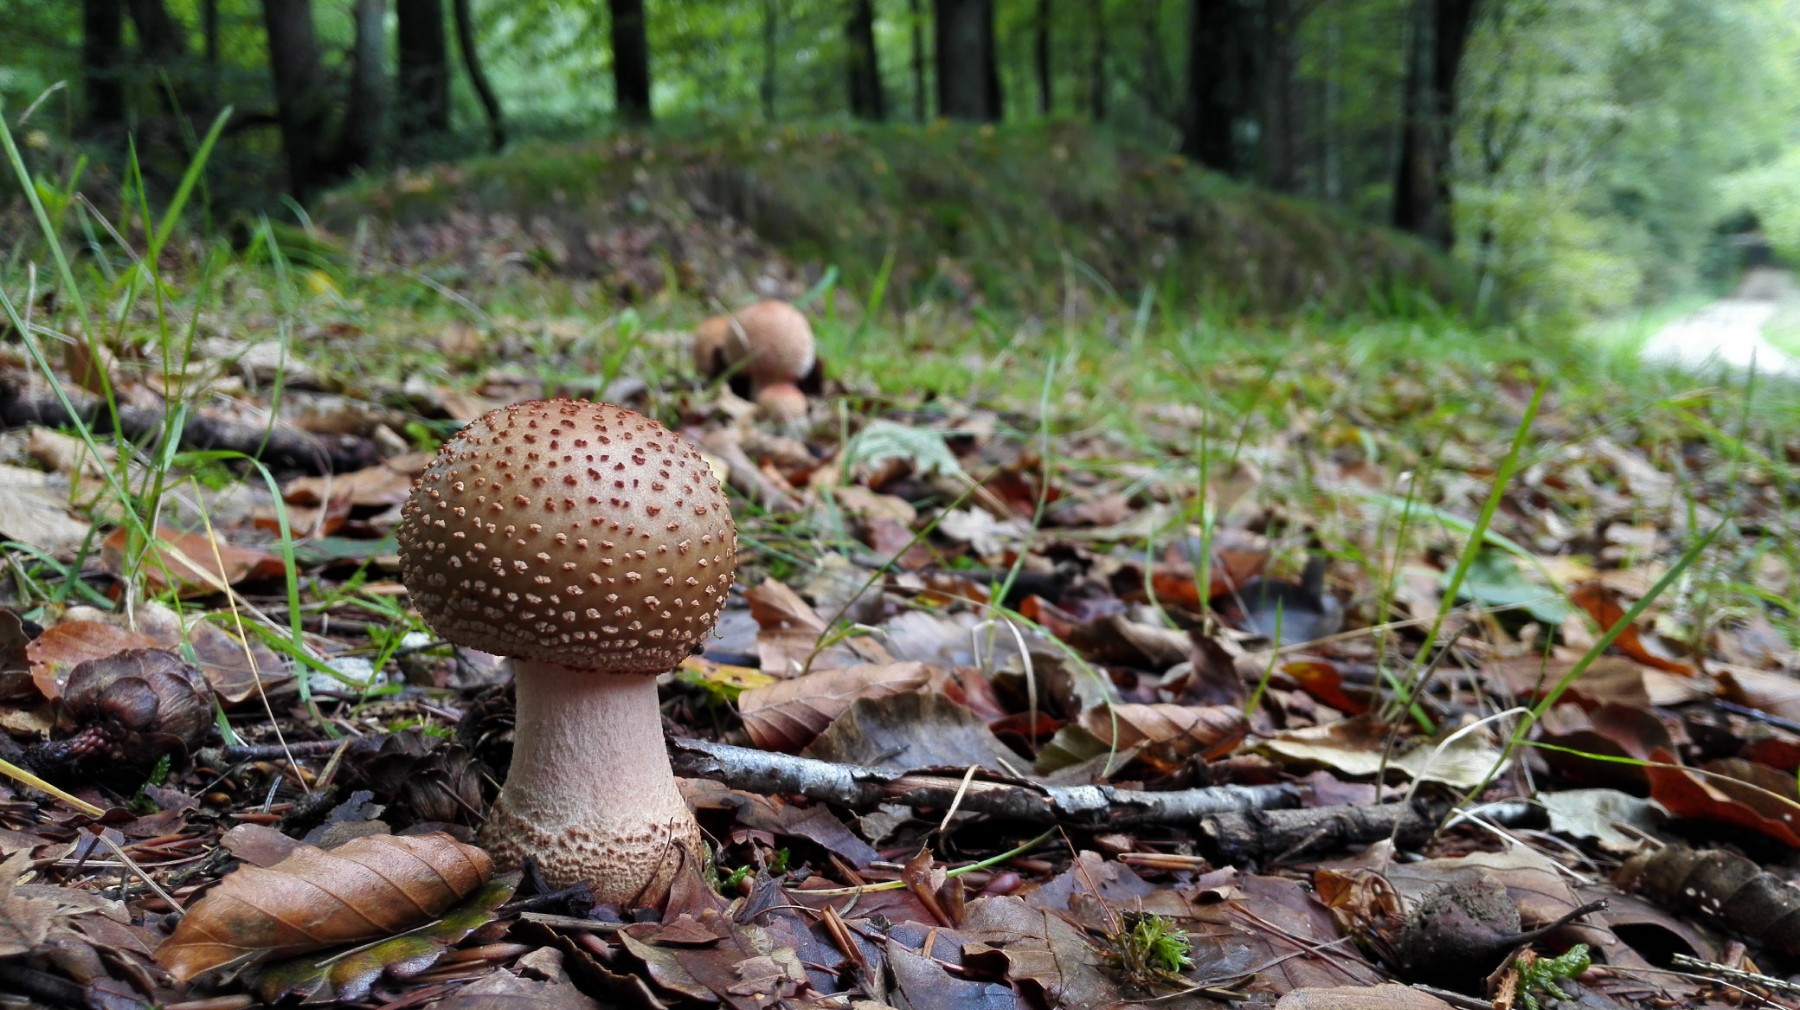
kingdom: Fungi
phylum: Basidiomycota
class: Agaricomycetes
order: Agaricales
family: Amanitaceae
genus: Amanita
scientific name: Amanita rubescens
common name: rødmende fluesvamp
